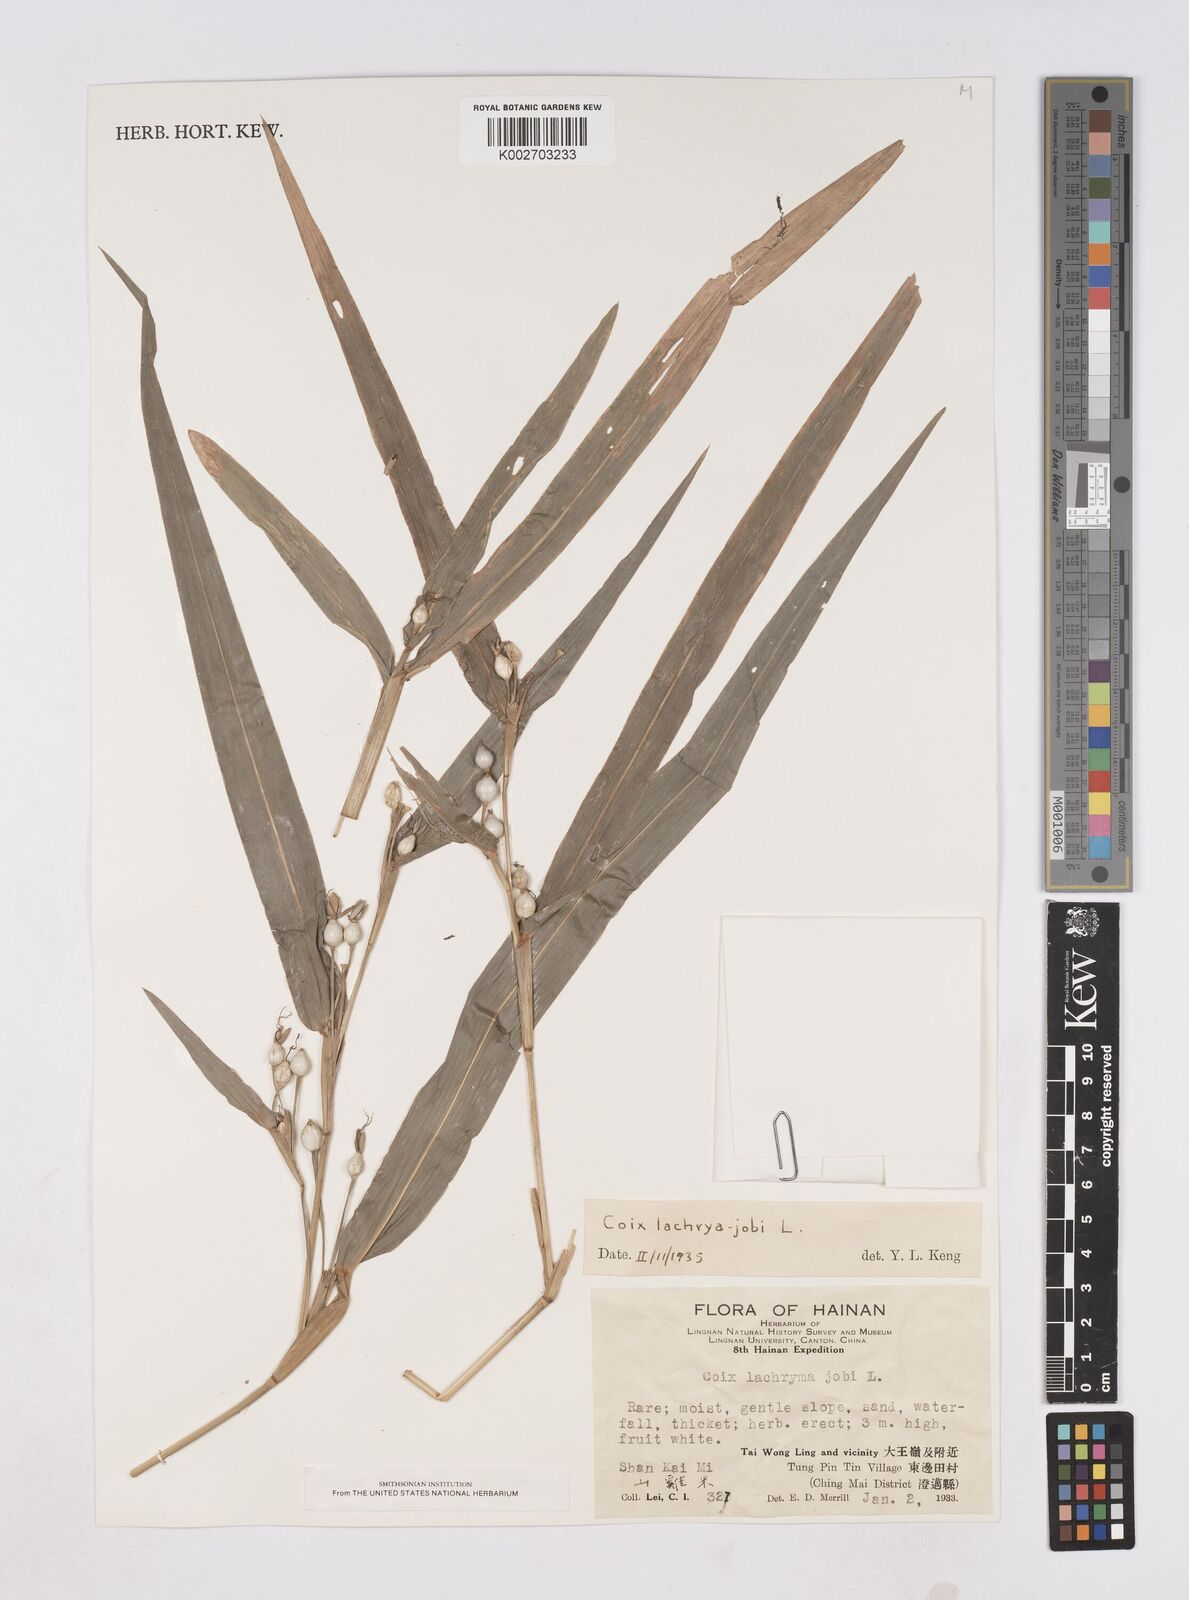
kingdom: Plantae
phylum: Tracheophyta
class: Liliopsida
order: Poales
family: Poaceae
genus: Coix
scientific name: Coix lacryma-jobi
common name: Job's tears
